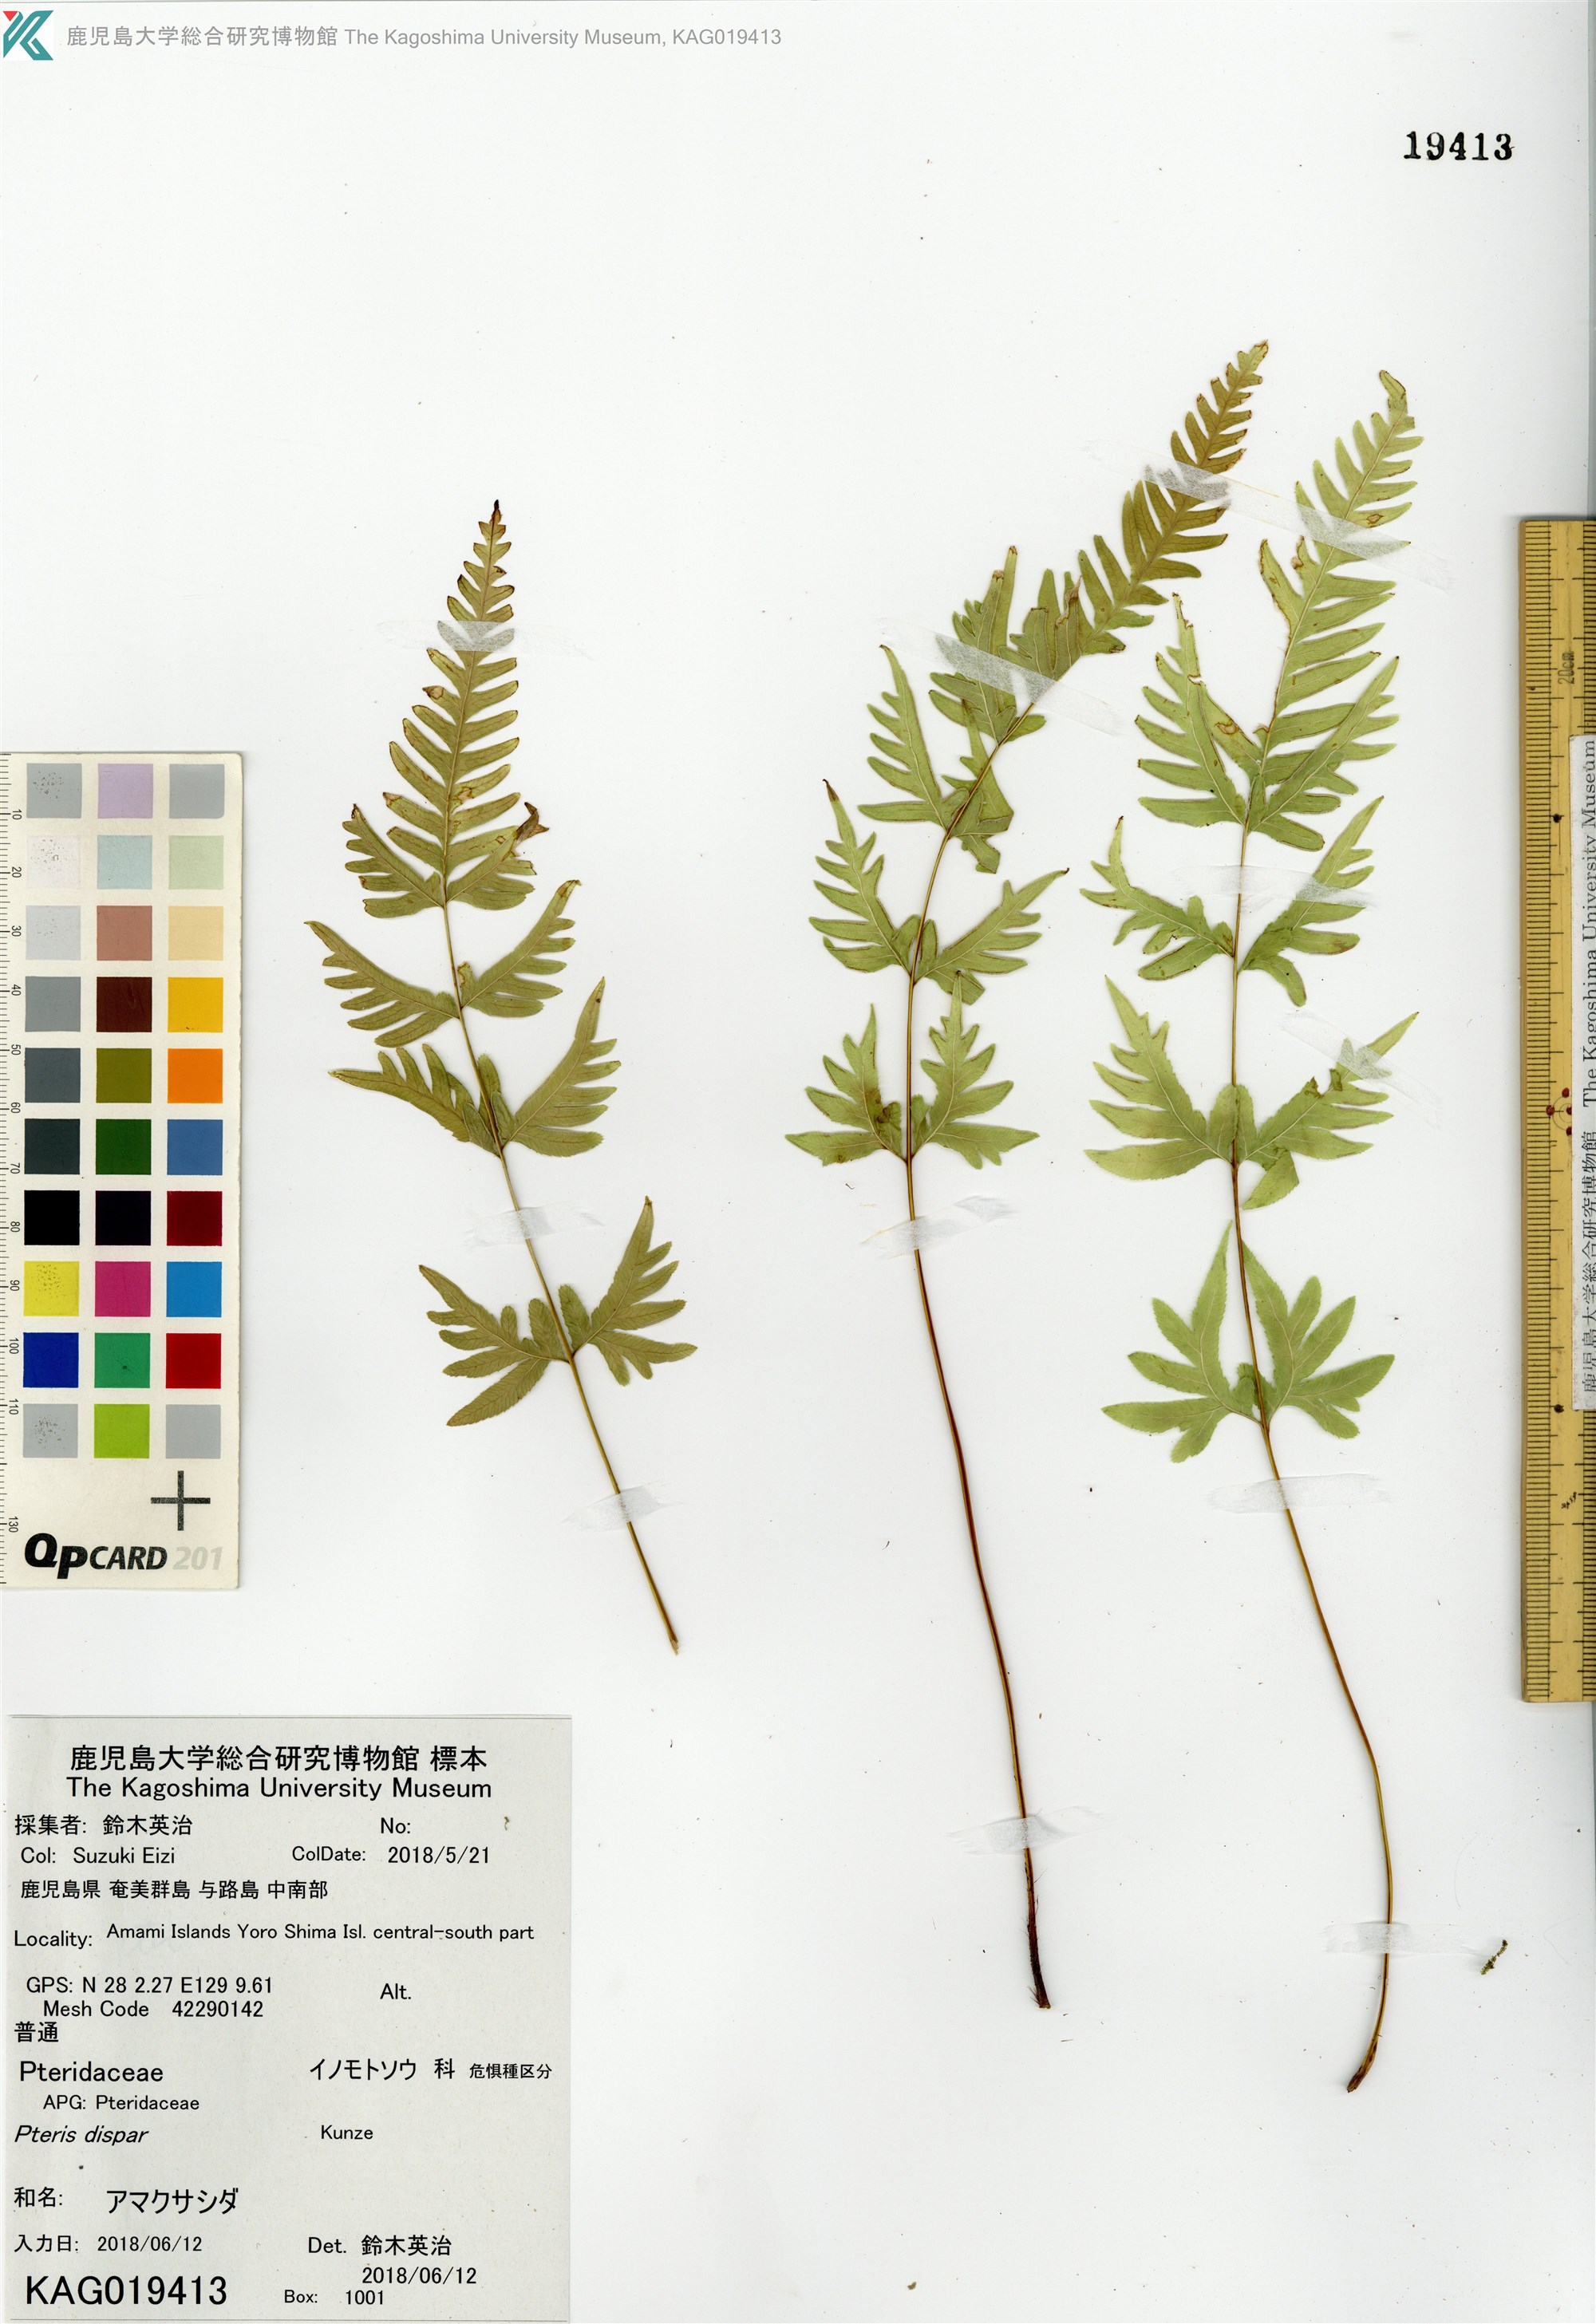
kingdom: Plantae
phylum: Tracheophyta
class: Polypodiopsida
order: Polypodiales
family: Pteridaceae
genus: Pteris
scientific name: Pteris dispar
